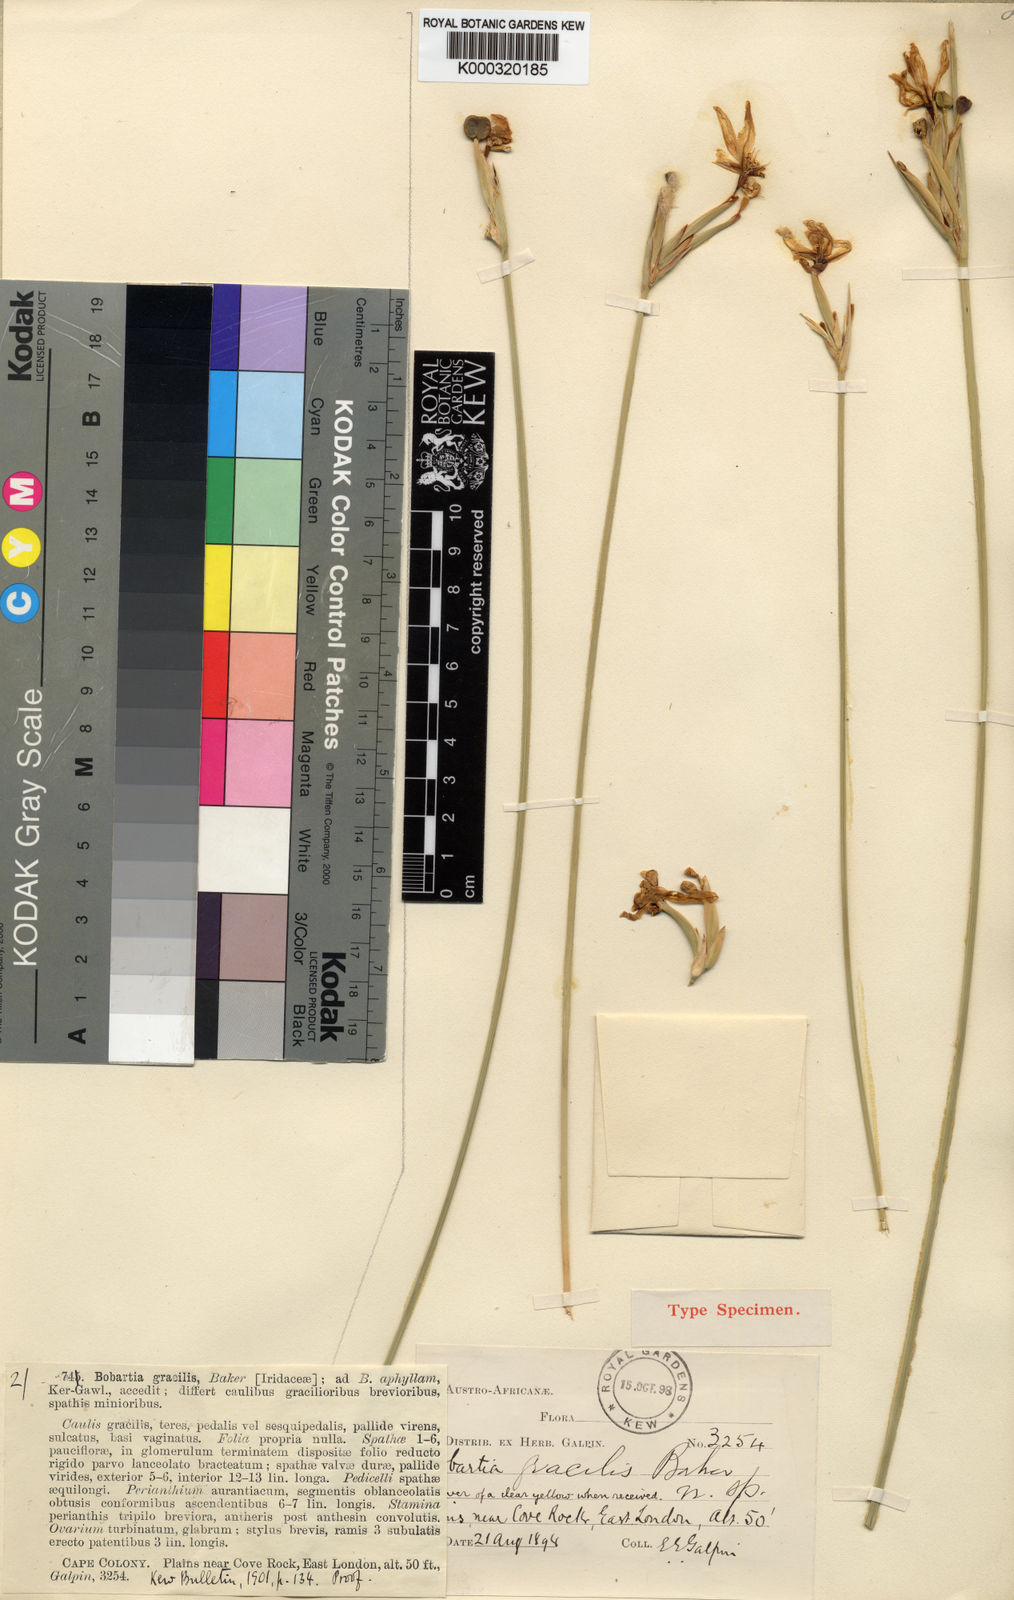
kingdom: Plantae
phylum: Tracheophyta
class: Liliopsida
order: Asparagales
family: Iridaceae
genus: Bobartia
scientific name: Bobartia gracilis
